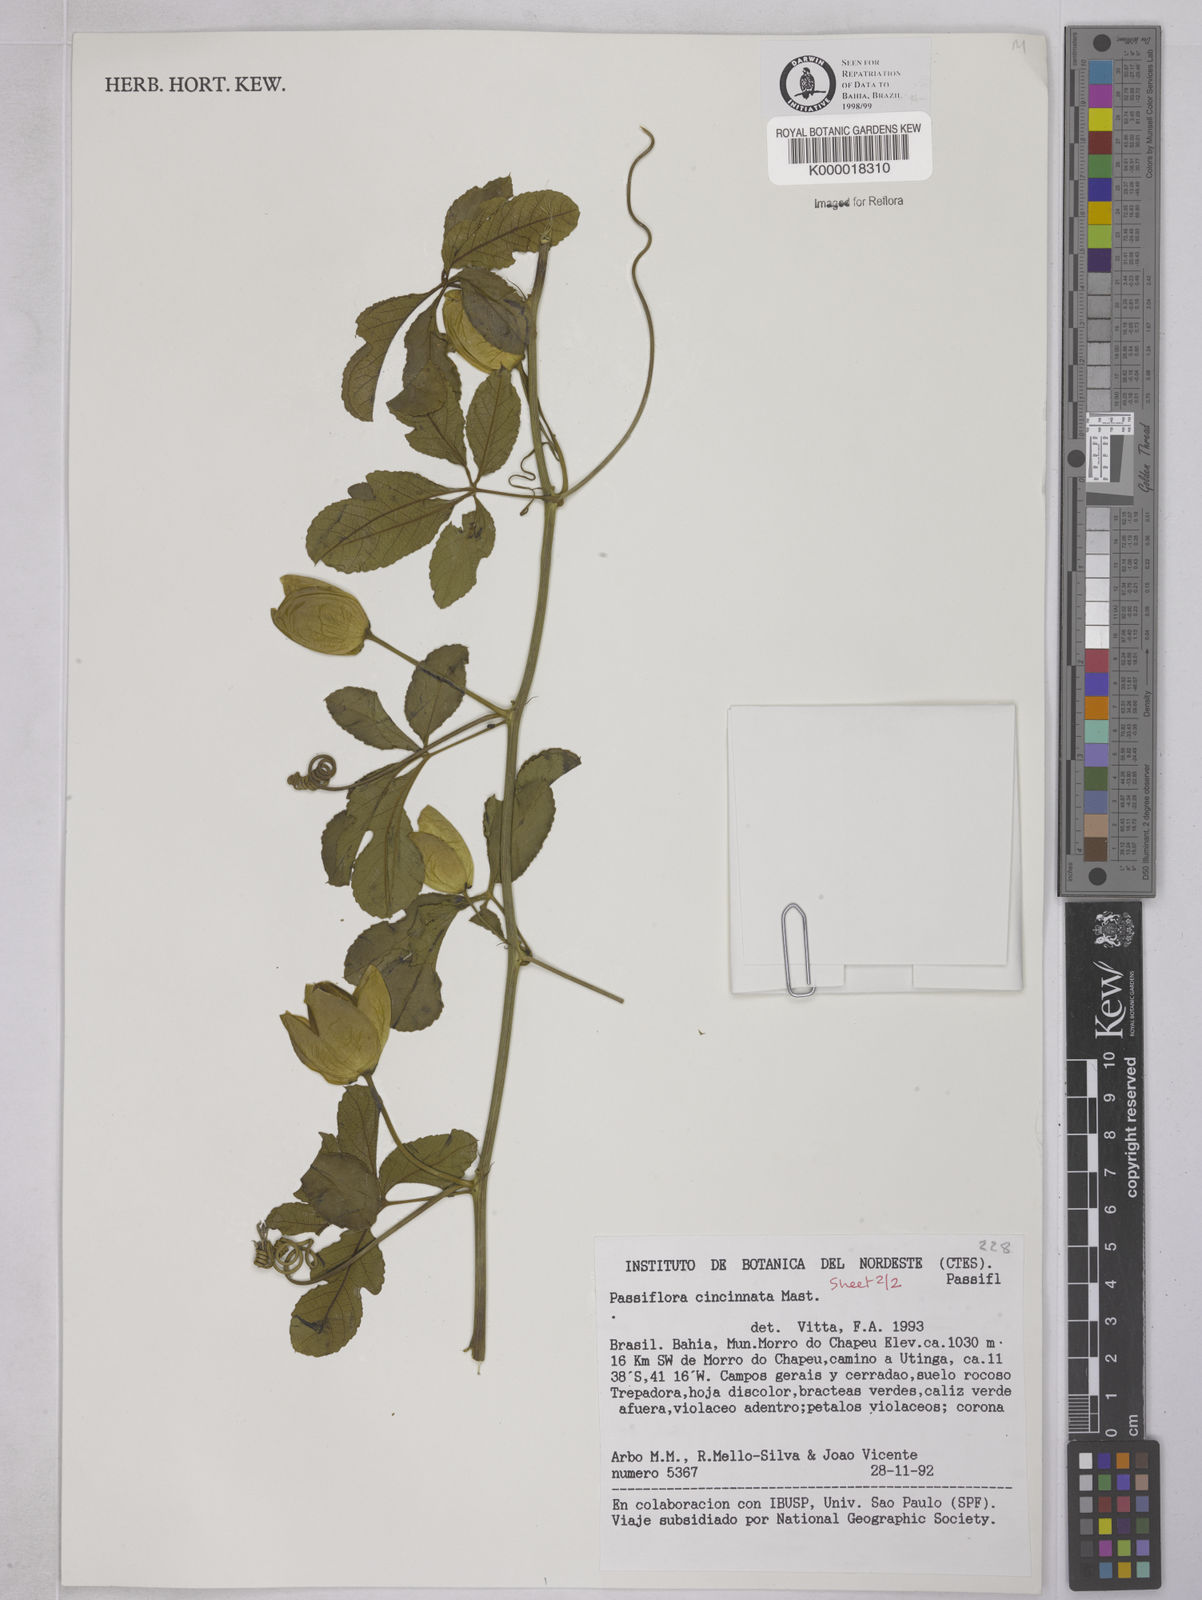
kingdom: Plantae
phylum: Tracheophyta
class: Magnoliopsida
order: Malpighiales
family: Passifloraceae
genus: Passiflora
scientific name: Passiflora cincinnata
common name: Crato passionvine
